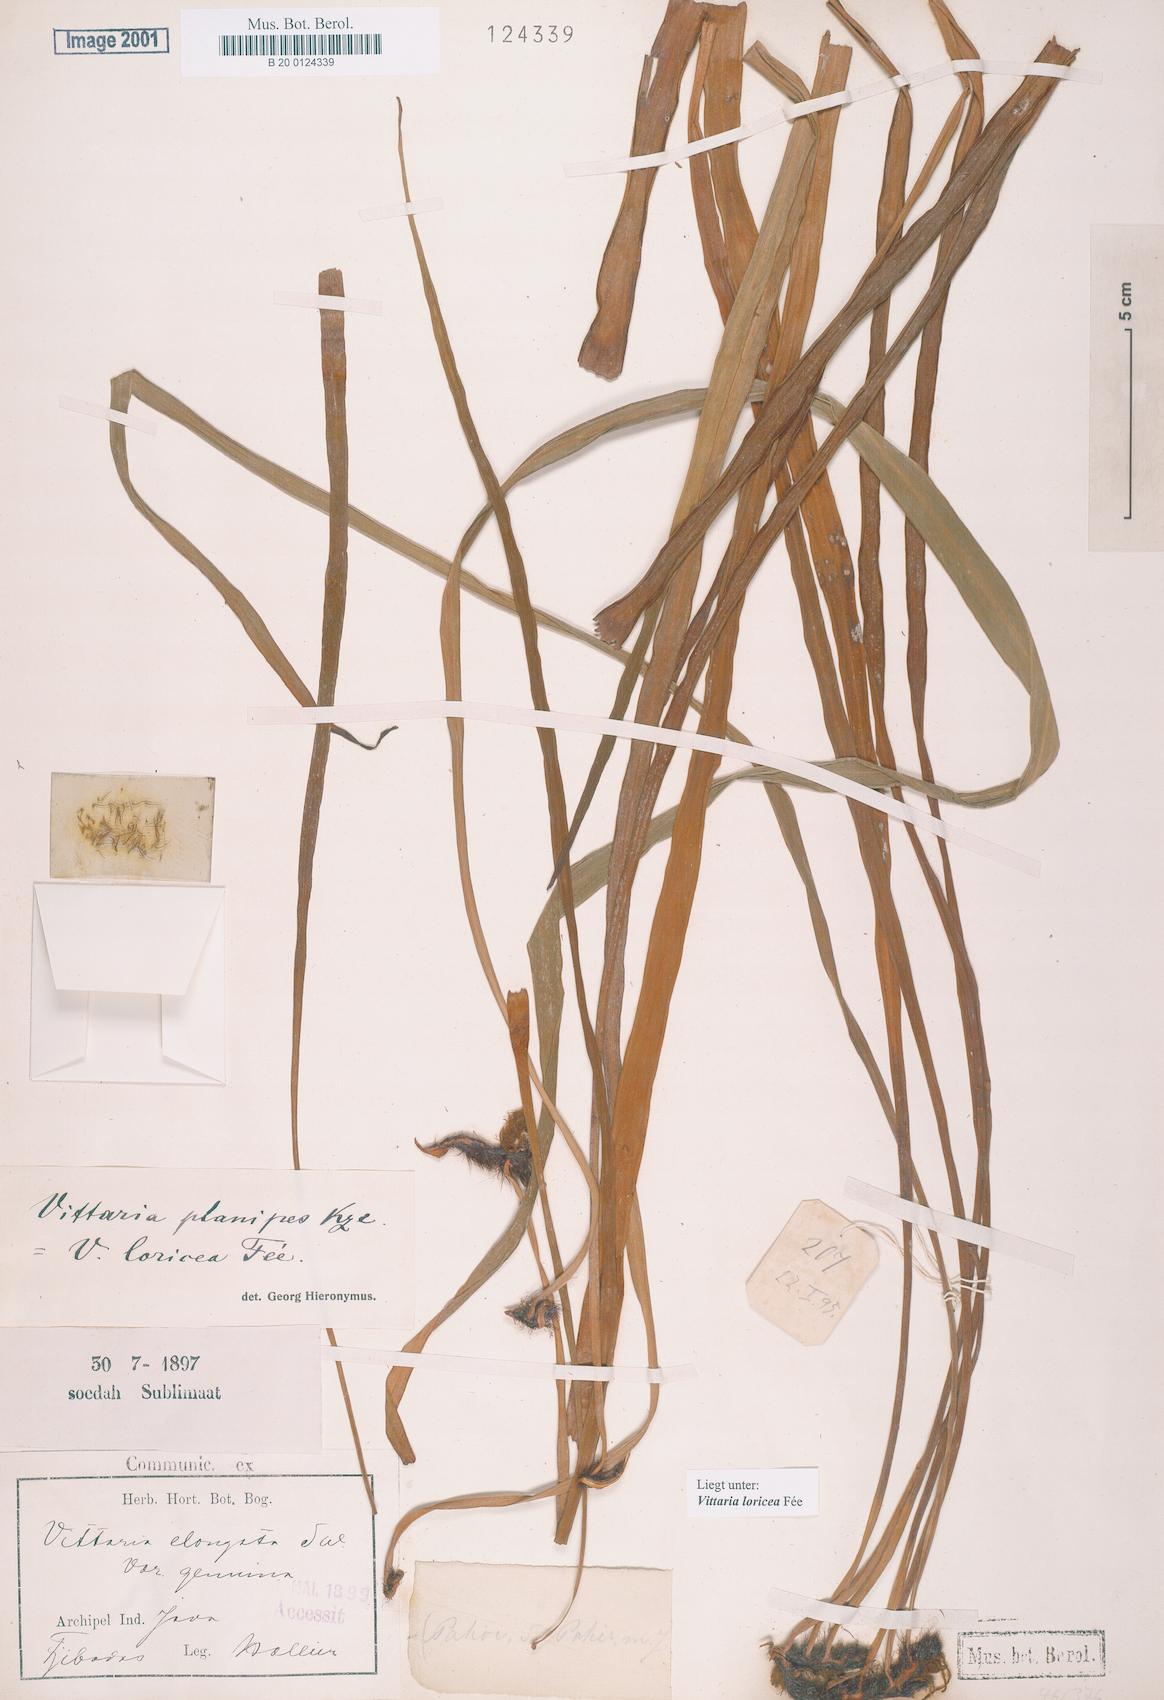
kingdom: Plantae
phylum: Tracheophyta
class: Polypodiopsida
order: Polypodiales
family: Pteridaceae
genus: Haplopteris
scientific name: Haplopteris zosterifolia
